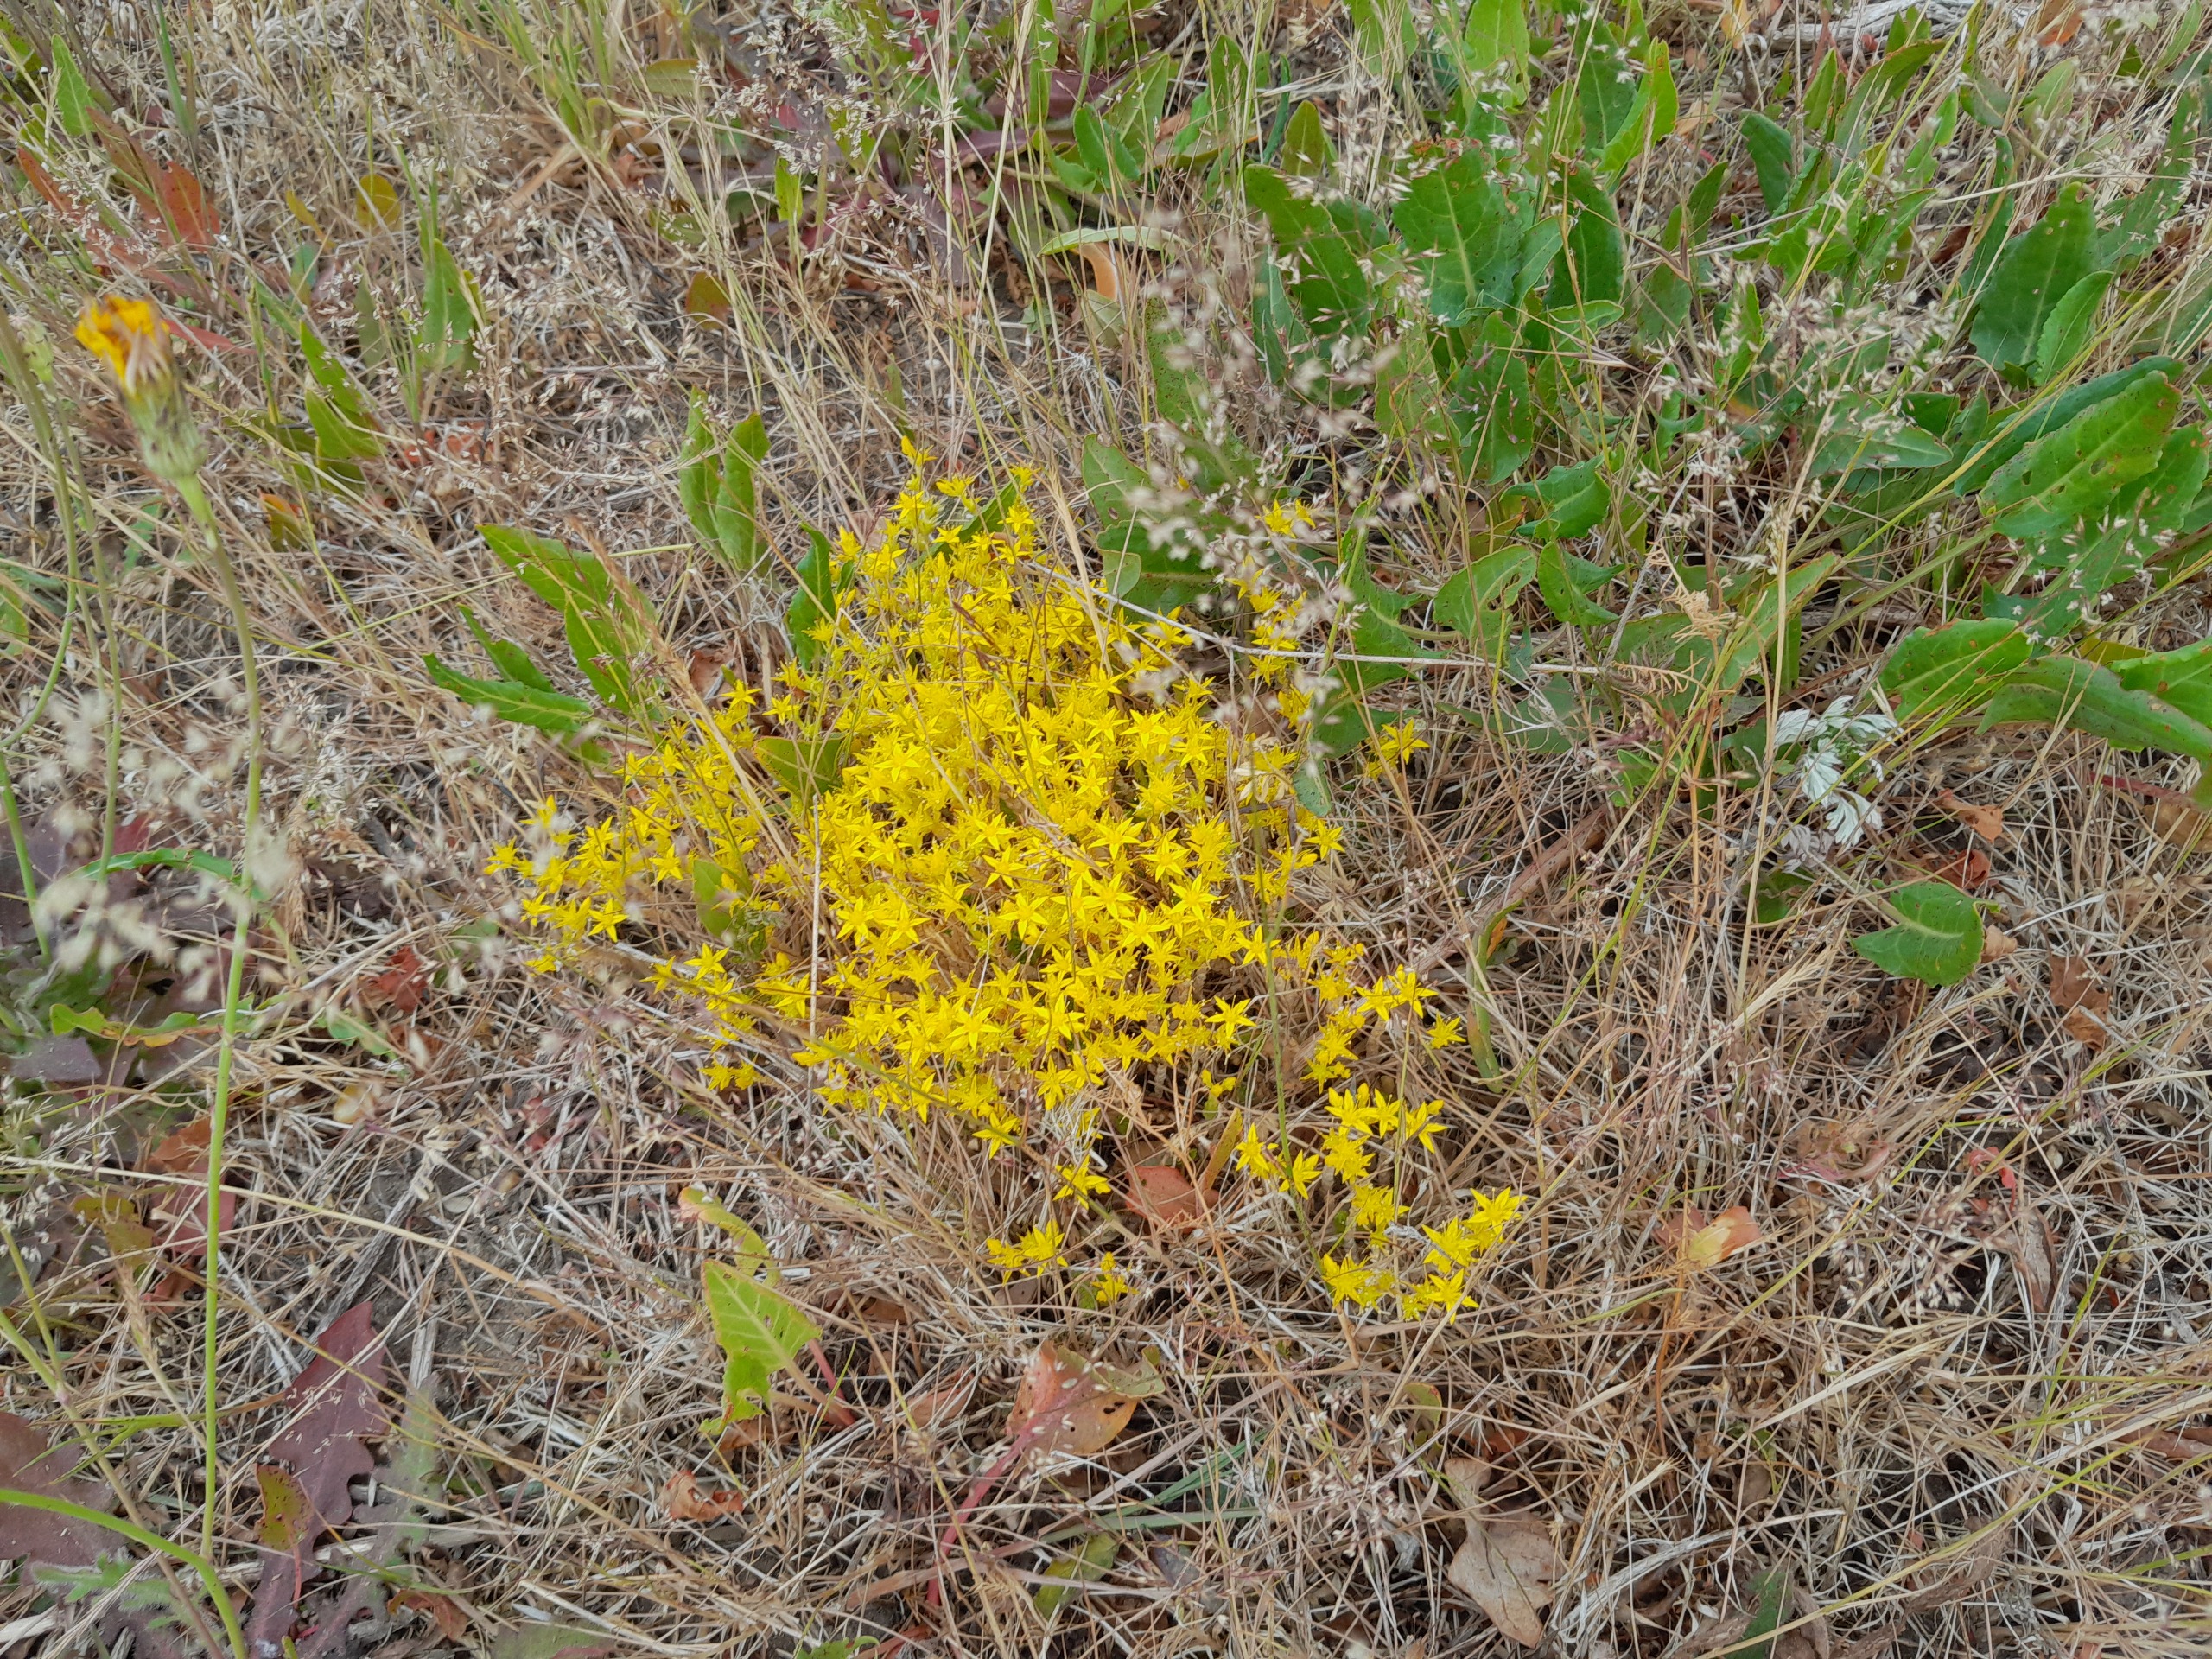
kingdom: Plantae
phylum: Tracheophyta
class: Magnoliopsida
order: Saxifragales
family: Crassulaceae
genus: Sedum
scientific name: Sedum acre
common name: Bidende stenurt
